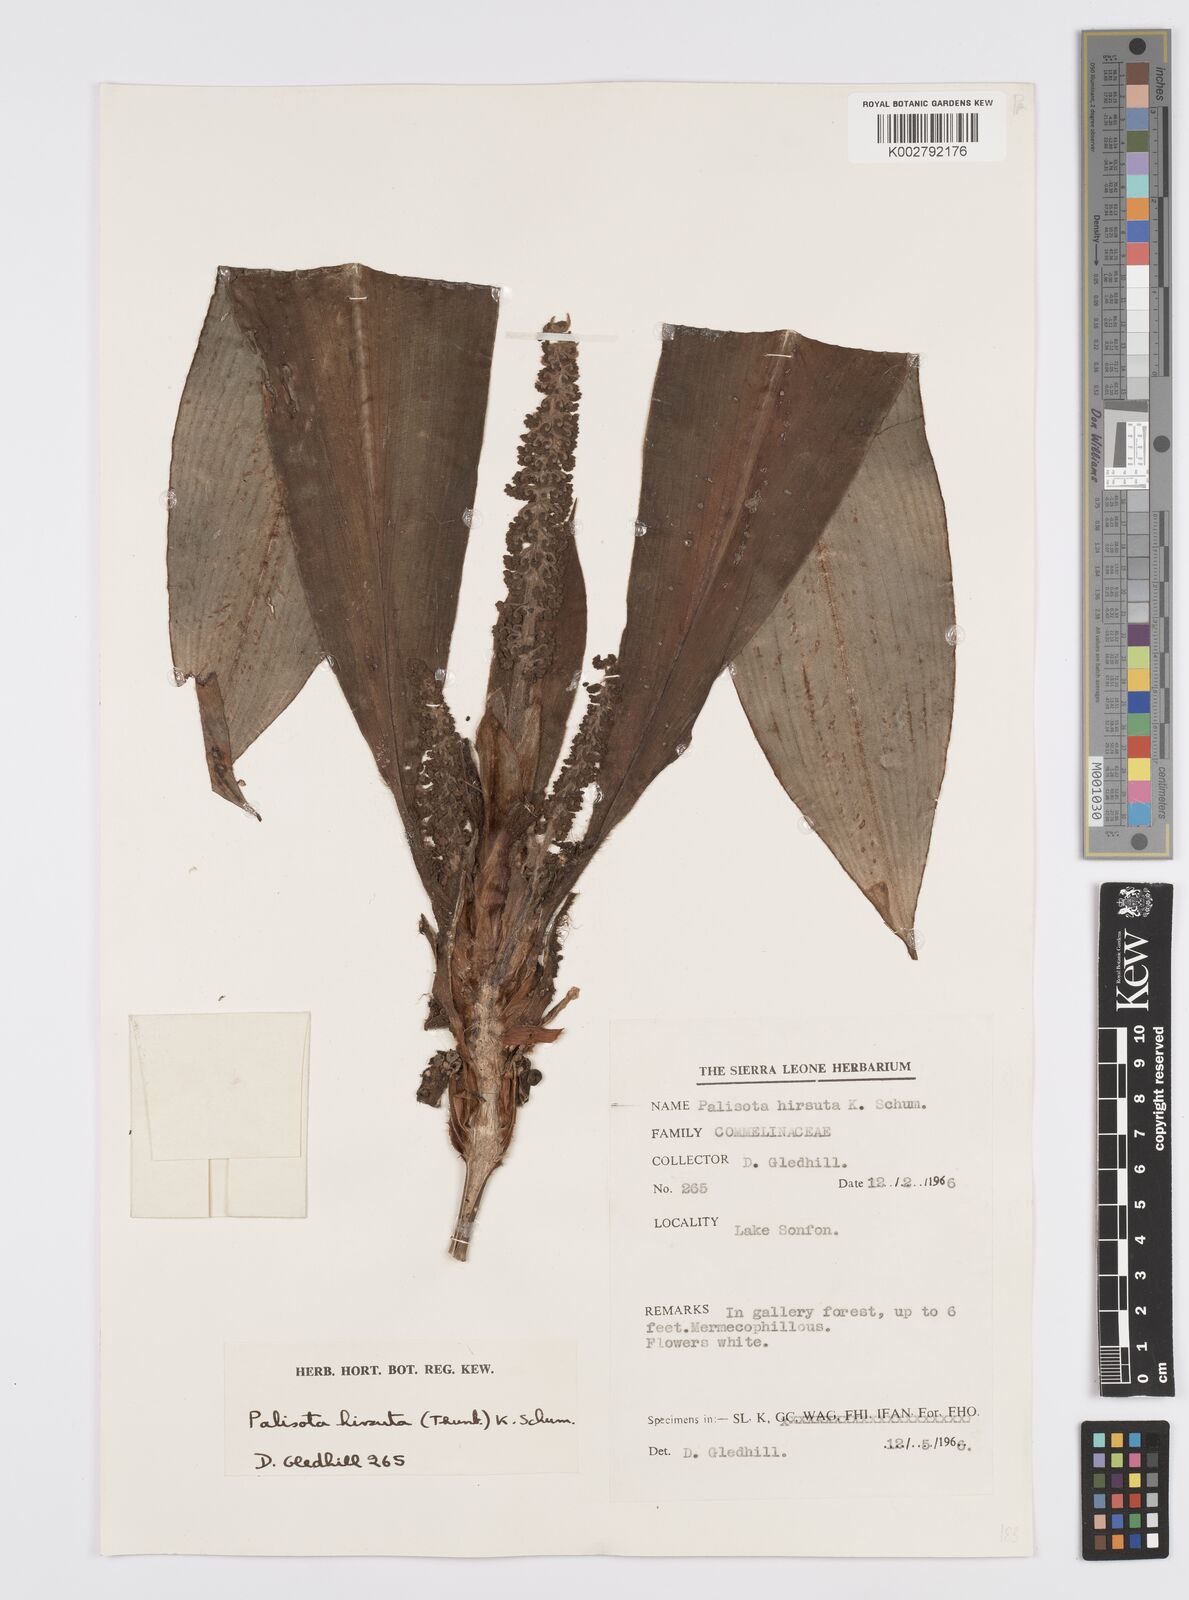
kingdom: Plantae
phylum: Tracheophyta
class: Liliopsida
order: Commelinales
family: Commelinaceae
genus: Palisota
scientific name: Palisota hirsuta
